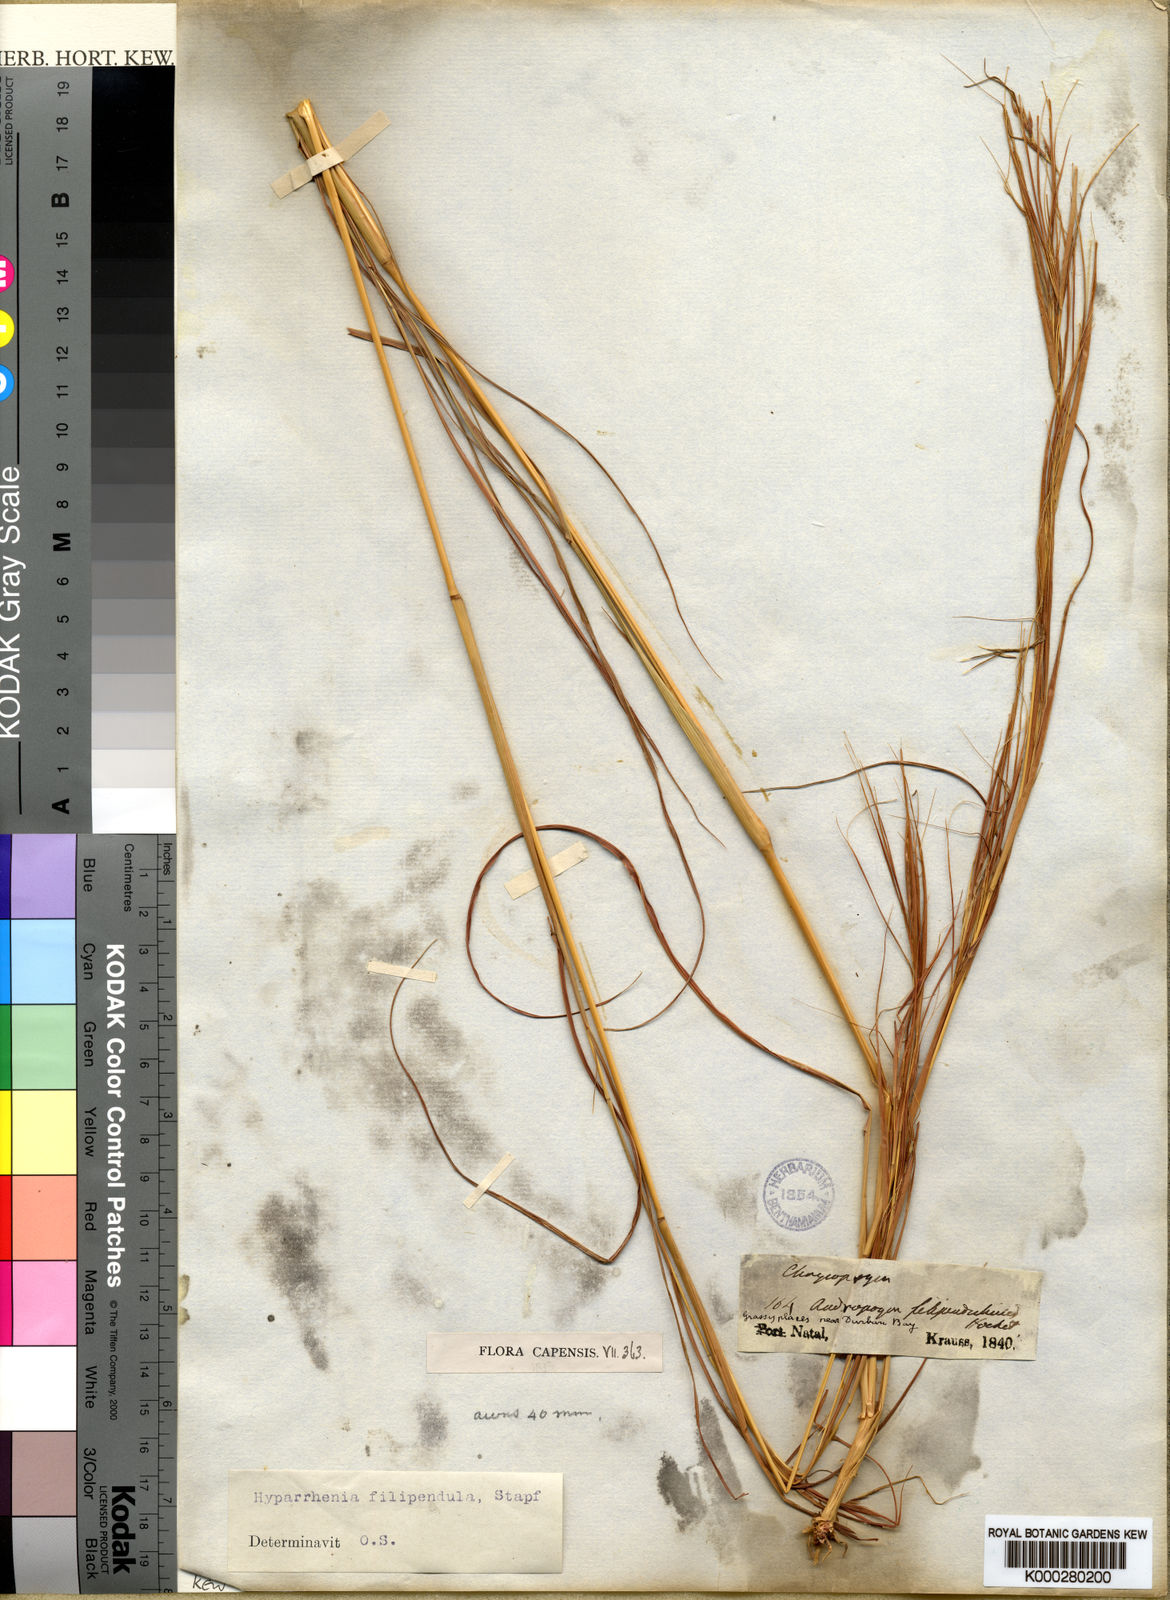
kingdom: Plantae
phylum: Tracheophyta
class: Liliopsida
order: Poales
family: Poaceae
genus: Hyparrhenia
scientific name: Hyparrhenia filipendula
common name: Tambookie grass
